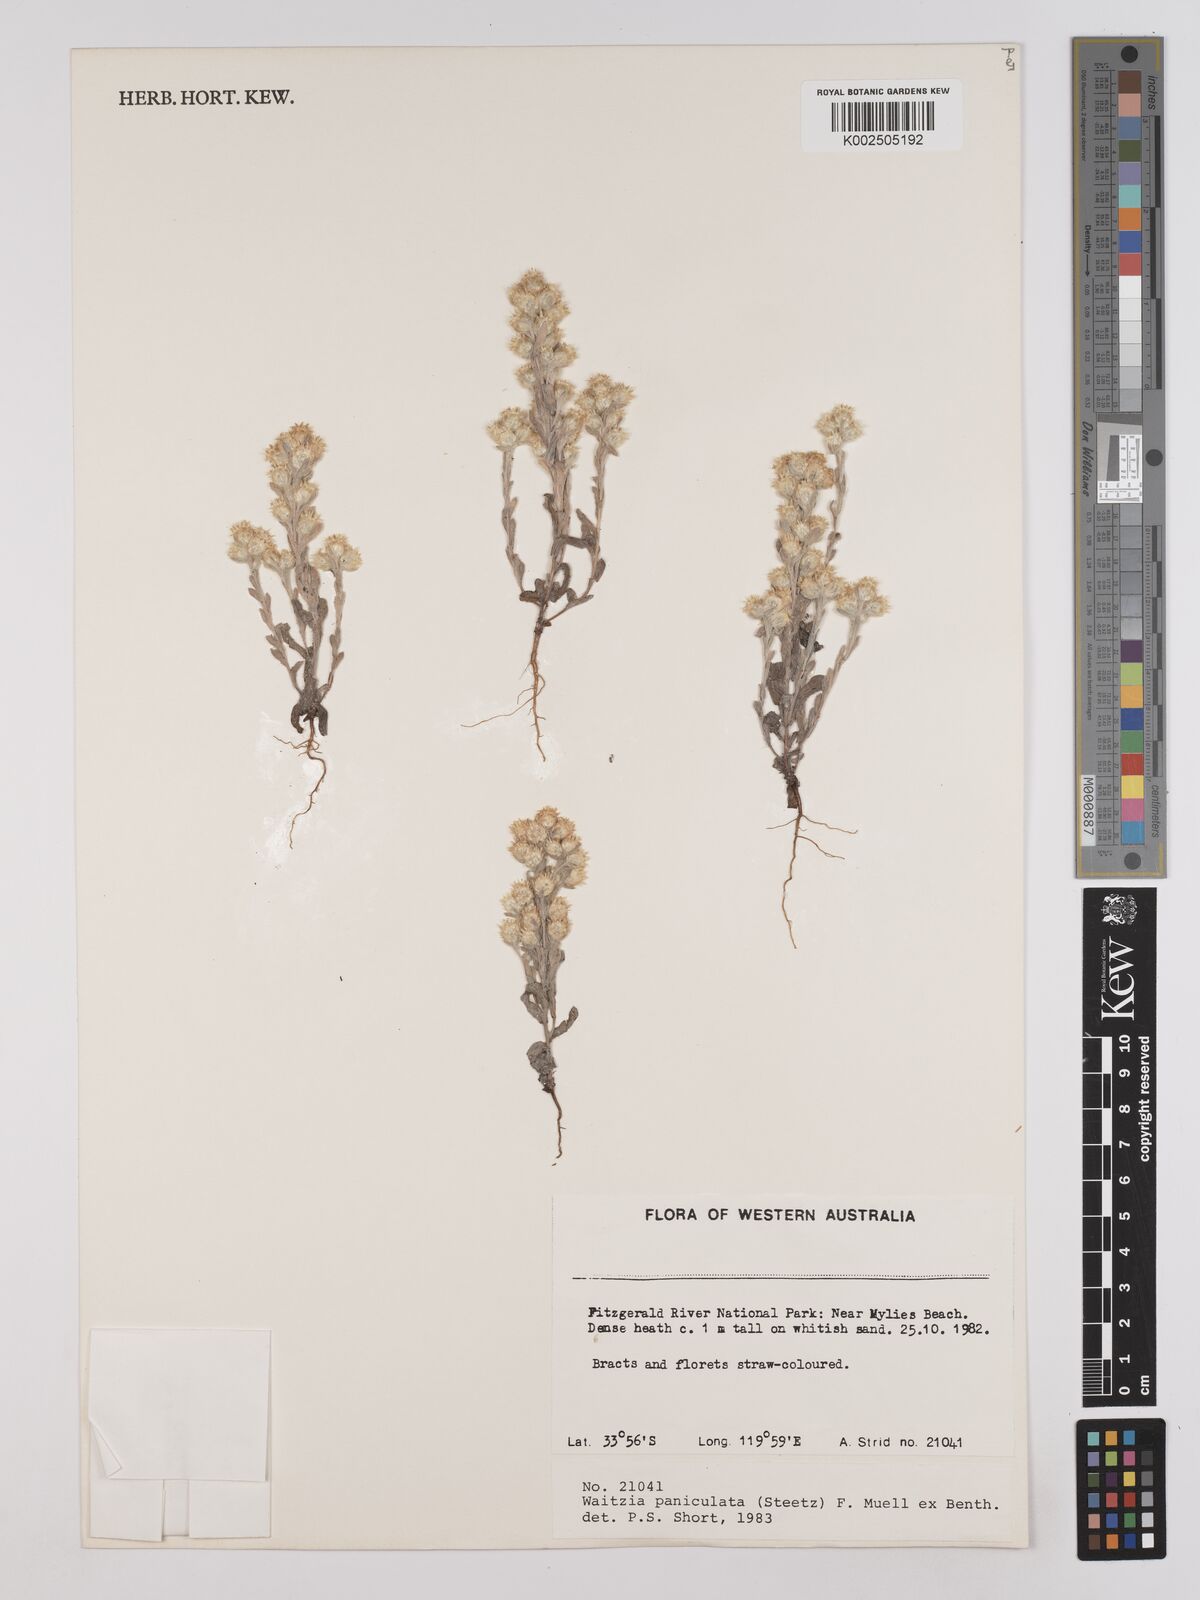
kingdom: Plantae
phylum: Tracheophyta
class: Magnoliopsida
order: Asterales
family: Asteraceae
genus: Pterochaeta
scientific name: Pterochaeta paniculata
